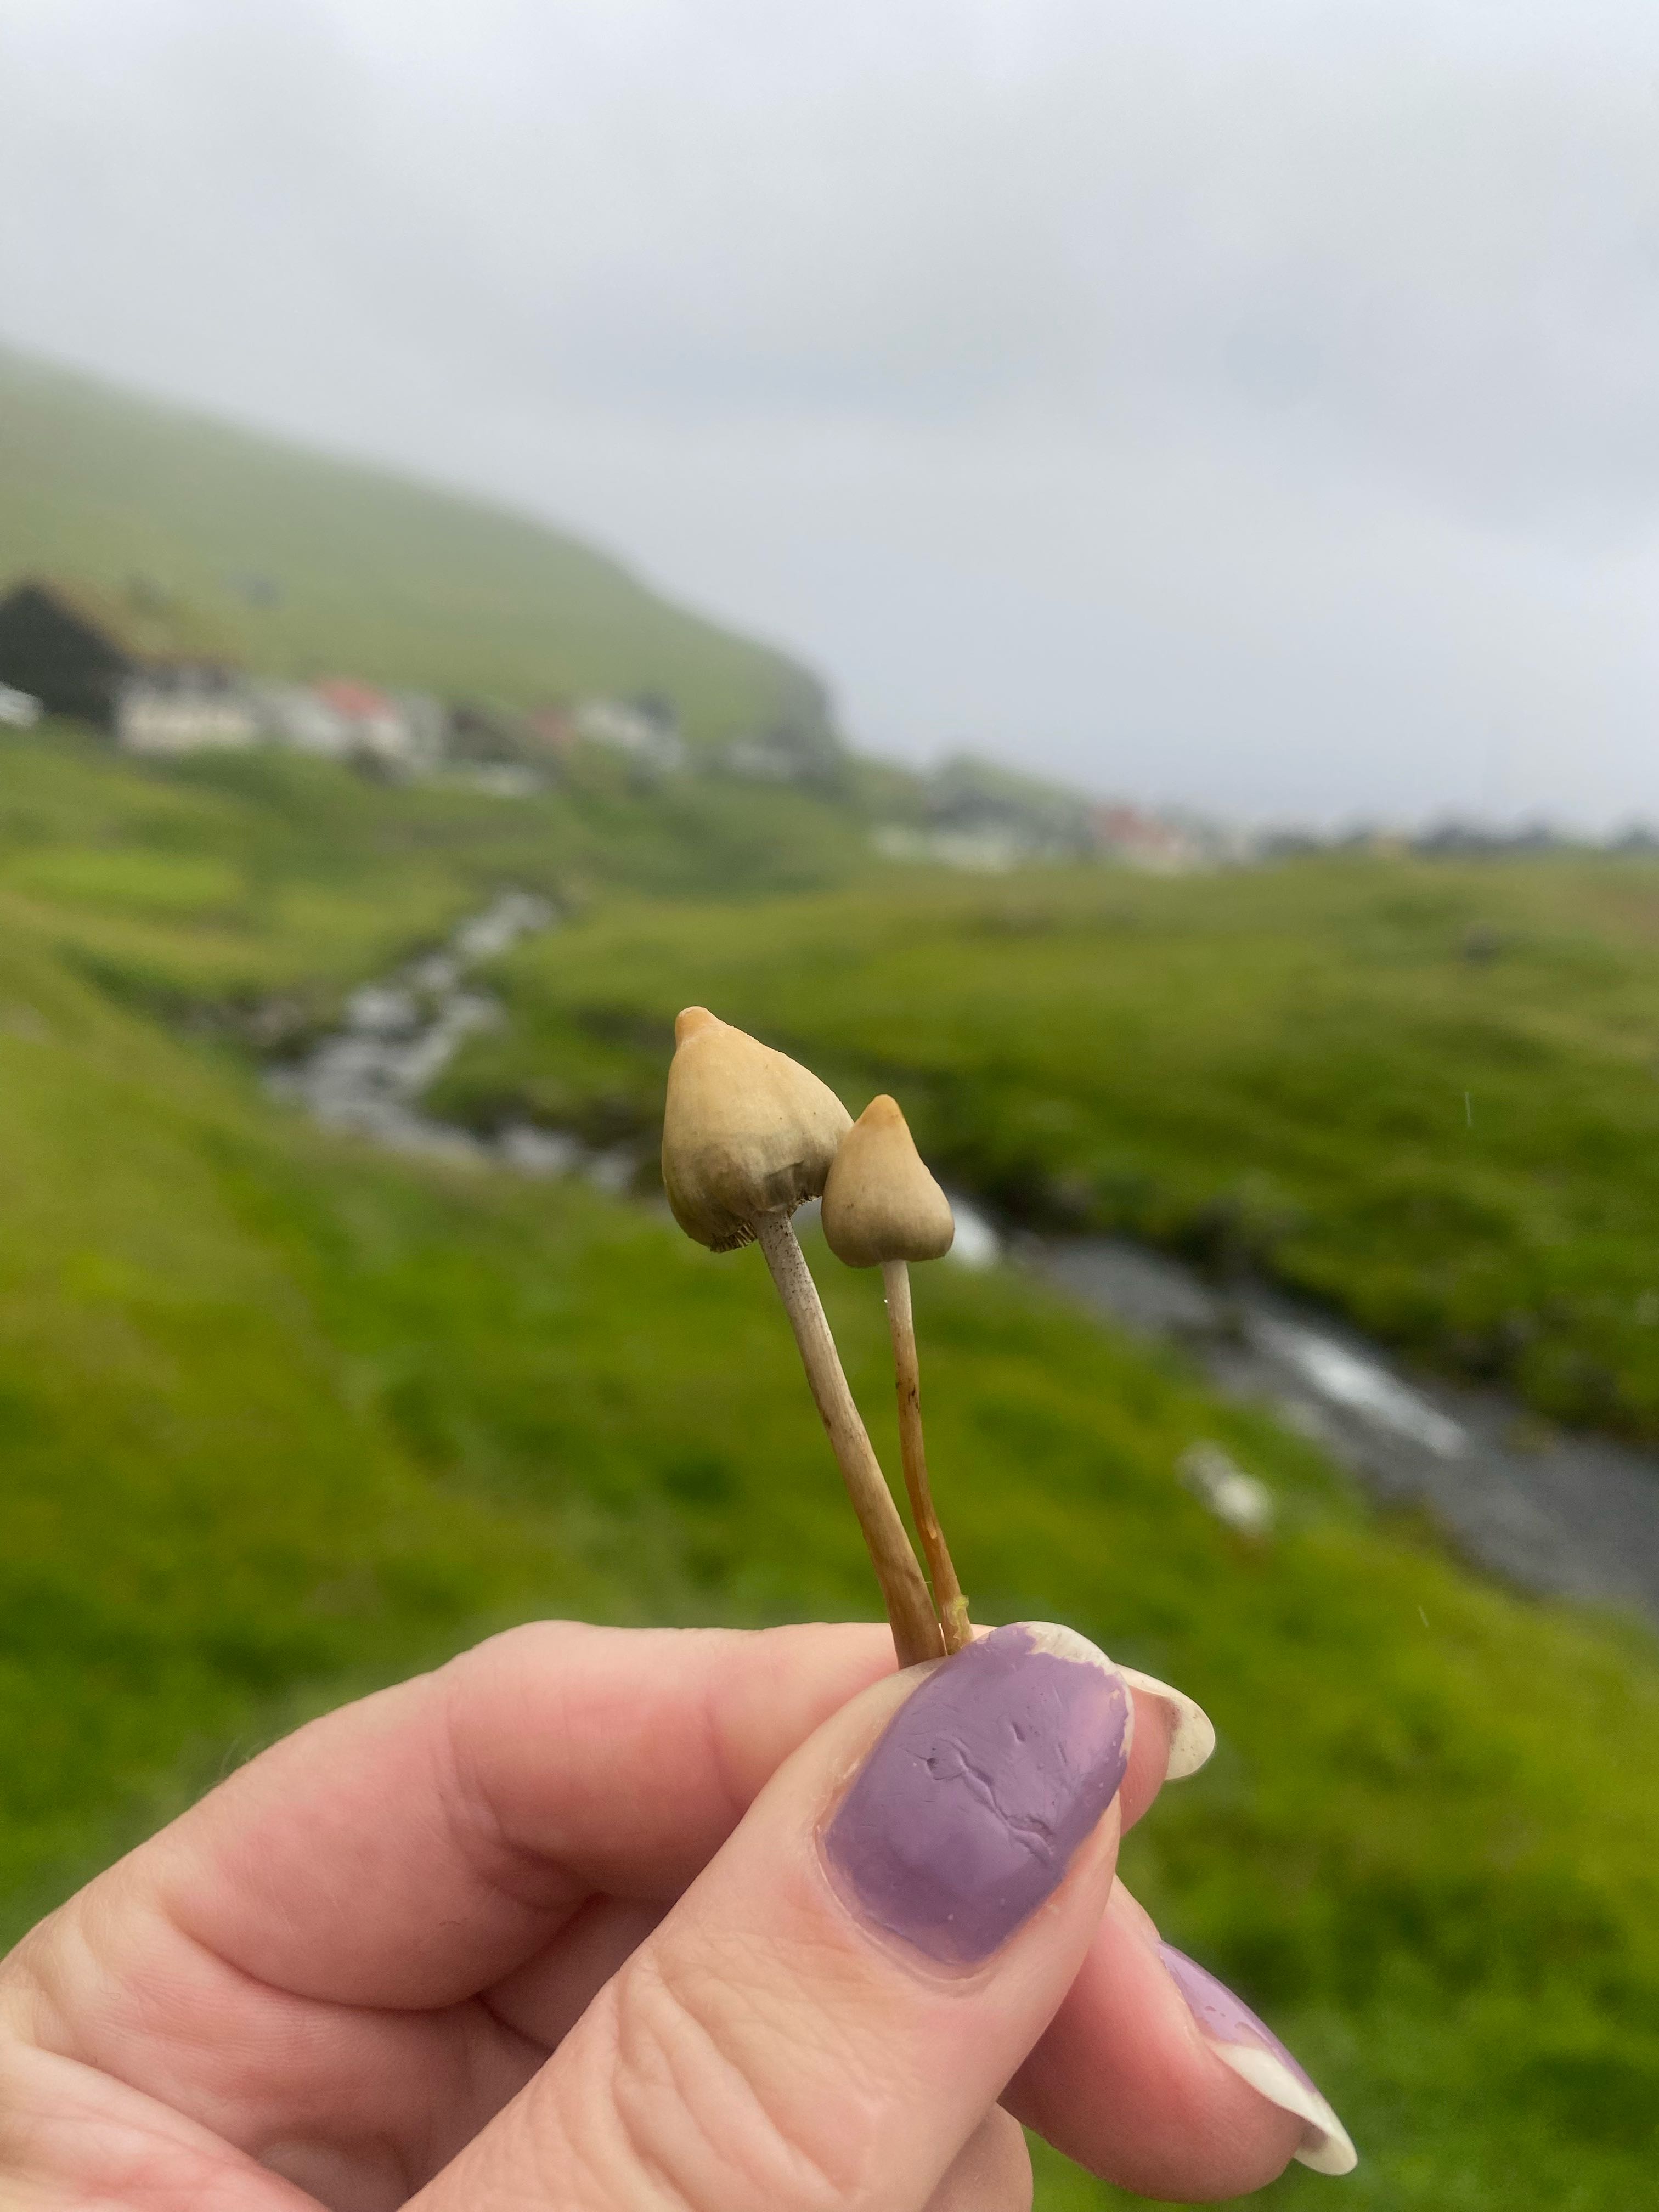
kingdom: Fungi
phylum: Basidiomycota
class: Agaricomycetes
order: Agaricales
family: Hymenogastraceae
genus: Psilocybe
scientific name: Psilocybe semilanceata
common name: spids nøgenhat
